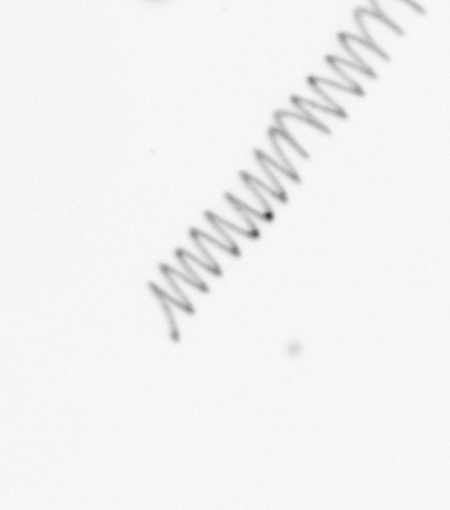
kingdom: Chromista
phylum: Ochrophyta
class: Bacillariophyceae
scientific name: Bacillariophyceae
